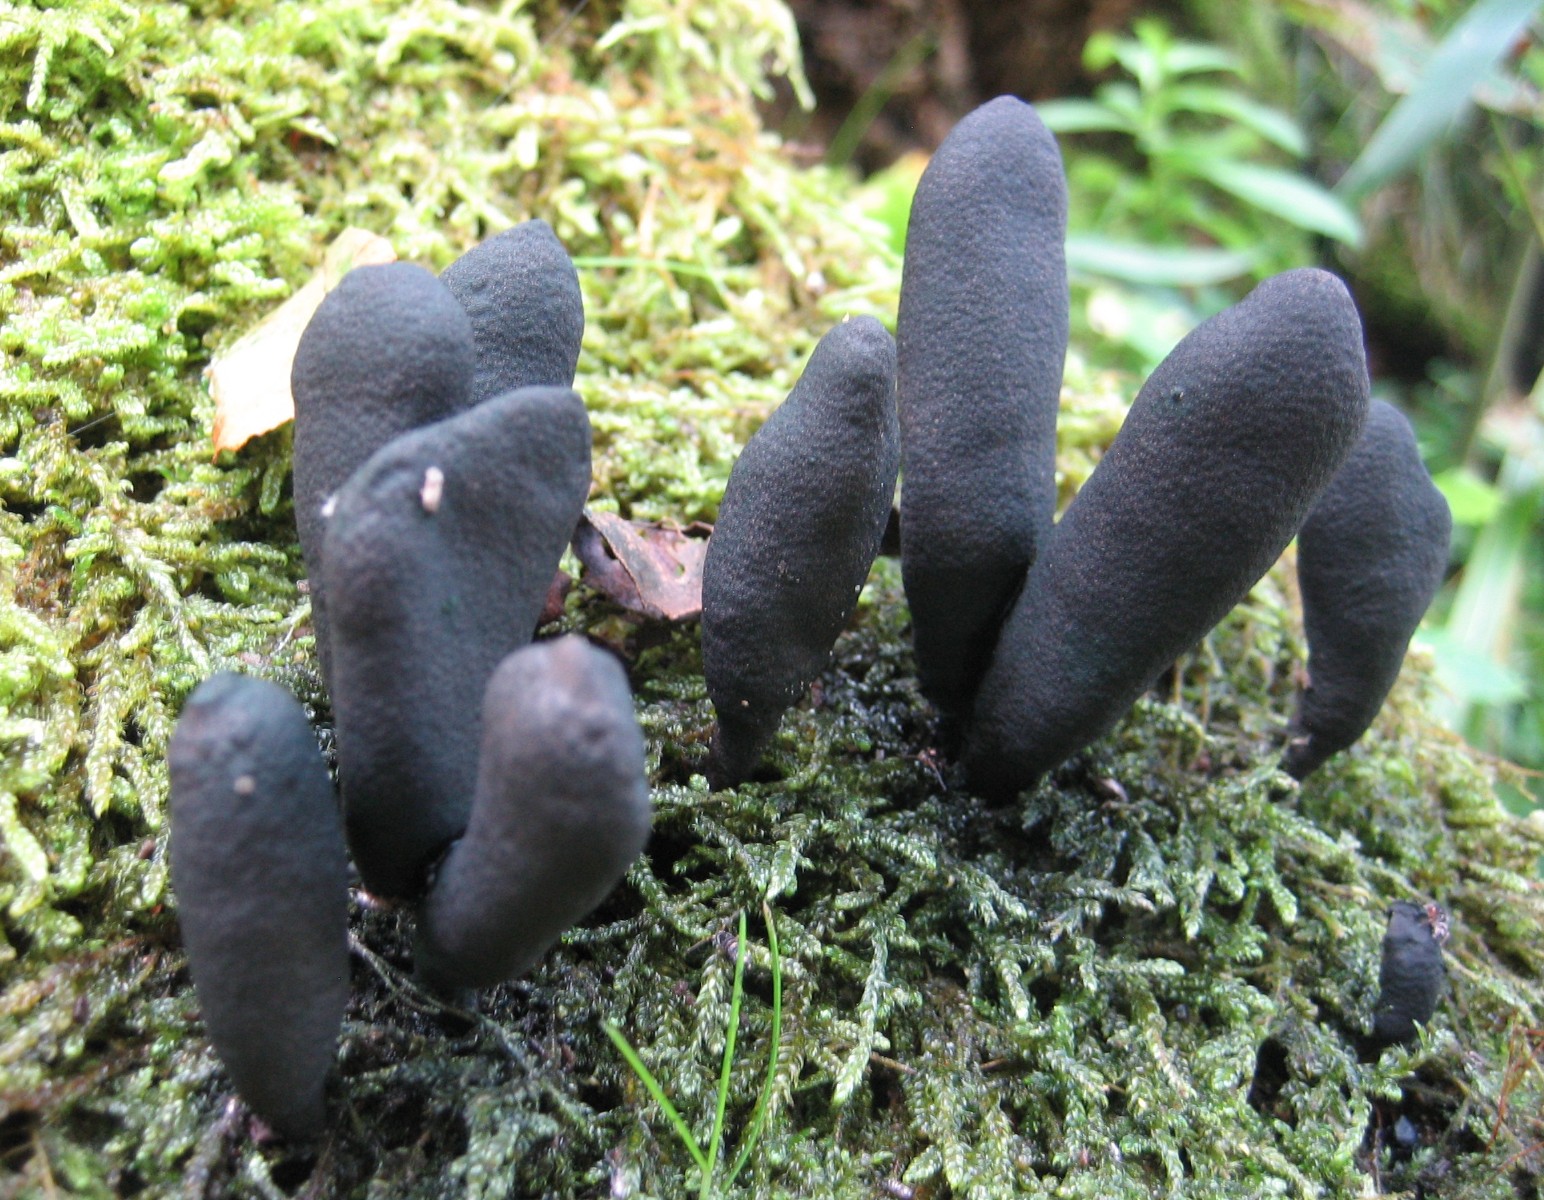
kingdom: Fungi
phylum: Ascomycota
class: Sordariomycetes
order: Xylariales
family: Xylariaceae
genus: Xylaria
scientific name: Xylaria polymorpha
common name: kølle-stødsvamp
